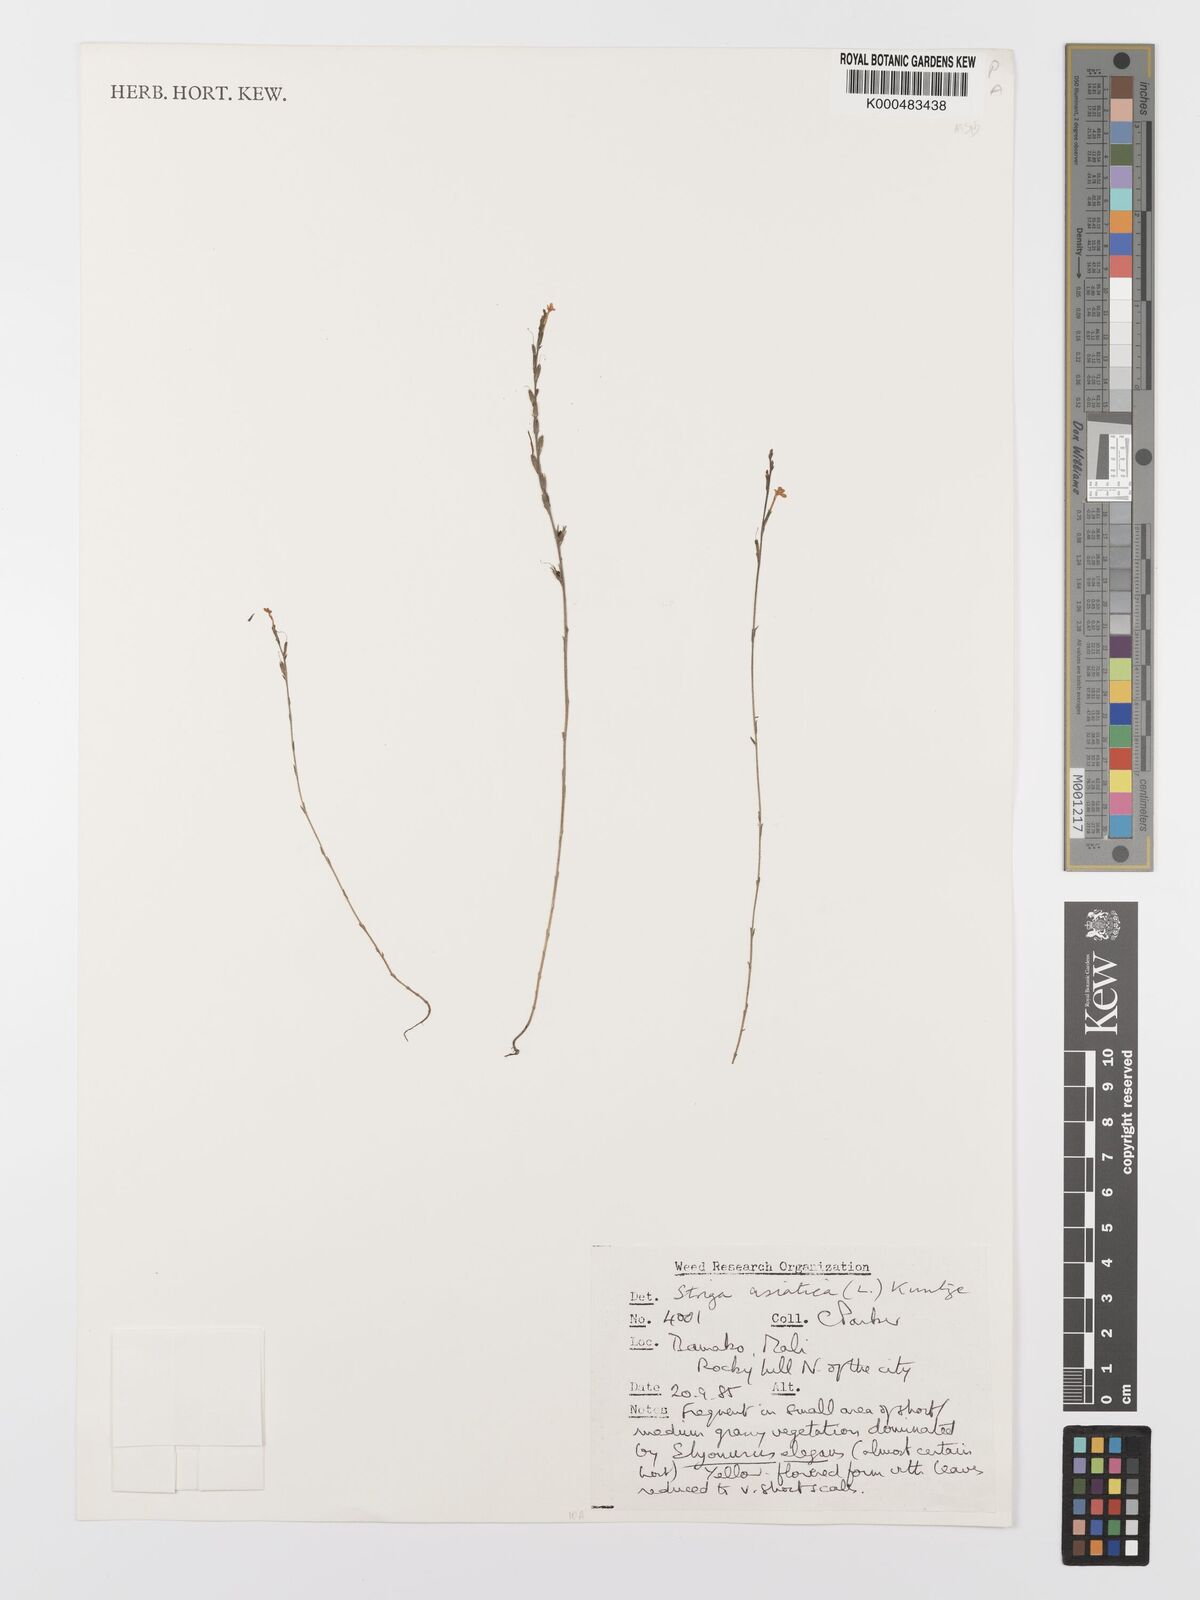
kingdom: Plantae
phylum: Tracheophyta
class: Magnoliopsida
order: Lamiales
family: Orobanchaceae
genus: Striga
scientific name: Striga asiatica
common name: Asiatic witchweed
